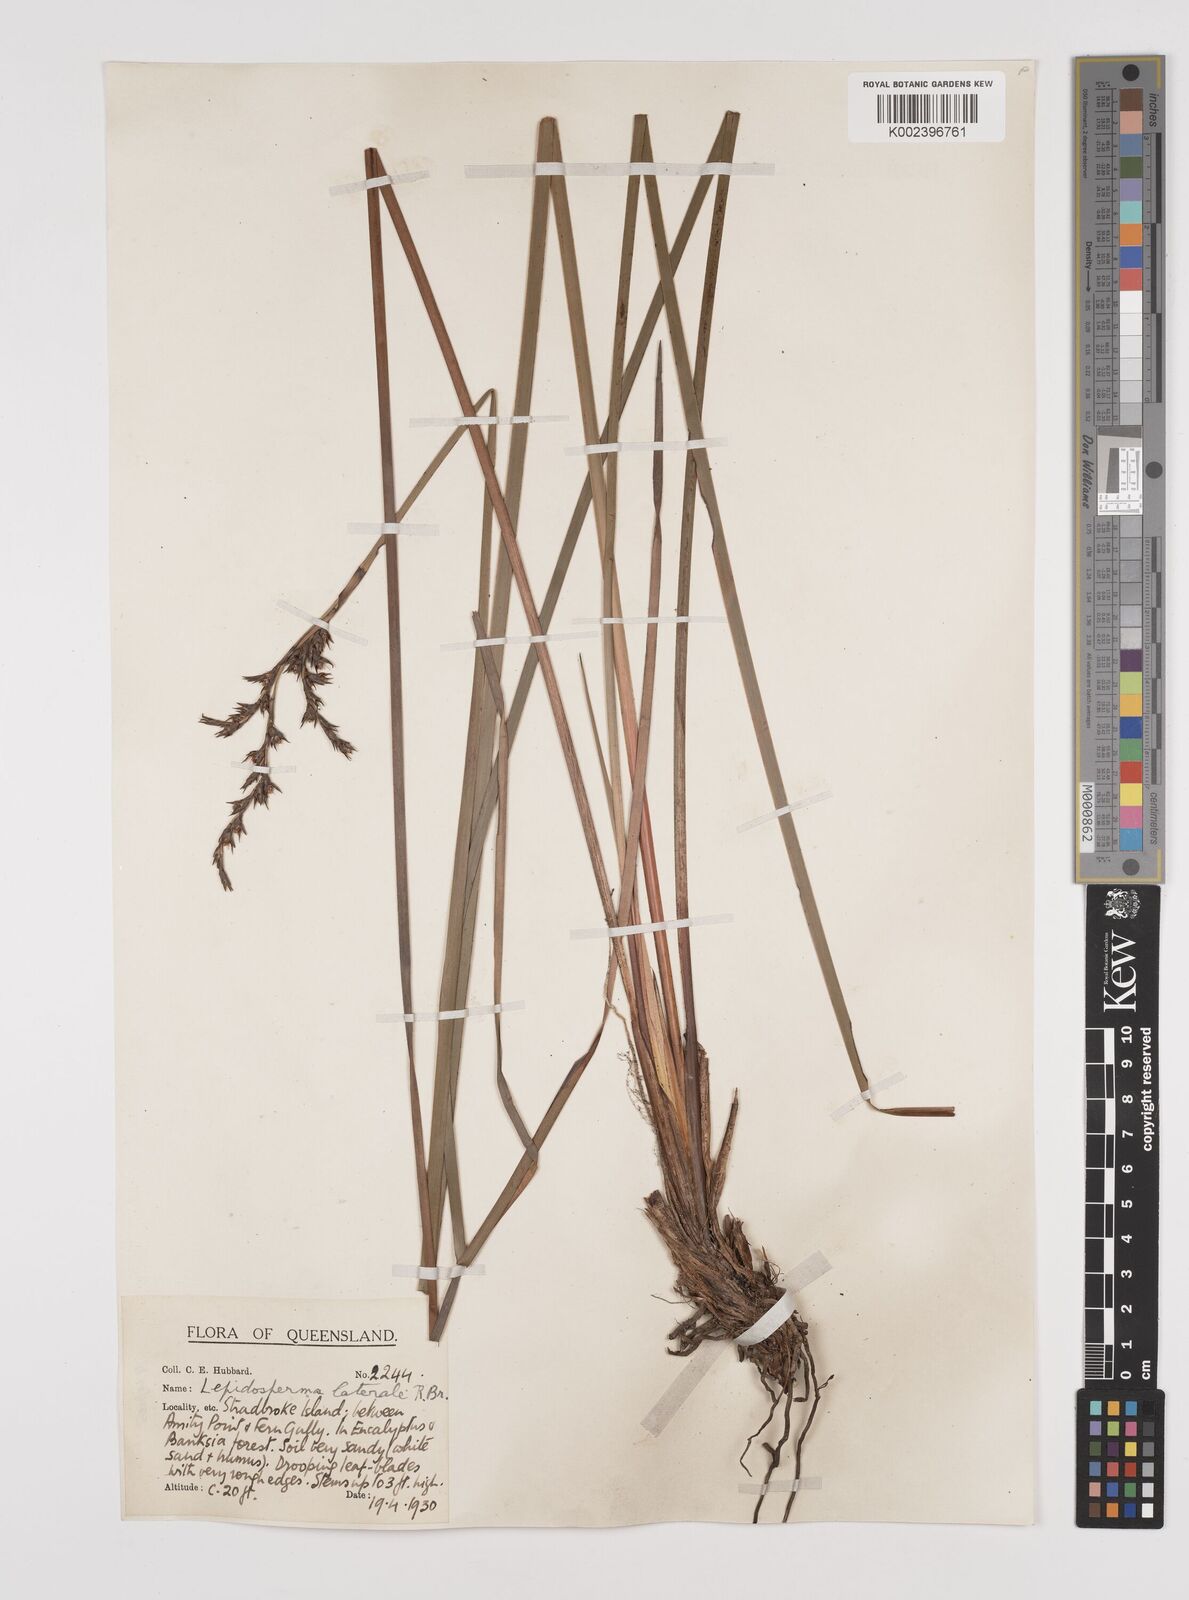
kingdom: Plantae
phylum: Tracheophyta
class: Liliopsida
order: Poales
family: Cyperaceae
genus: Lepidosperma
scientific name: Lepidosperma laterale
